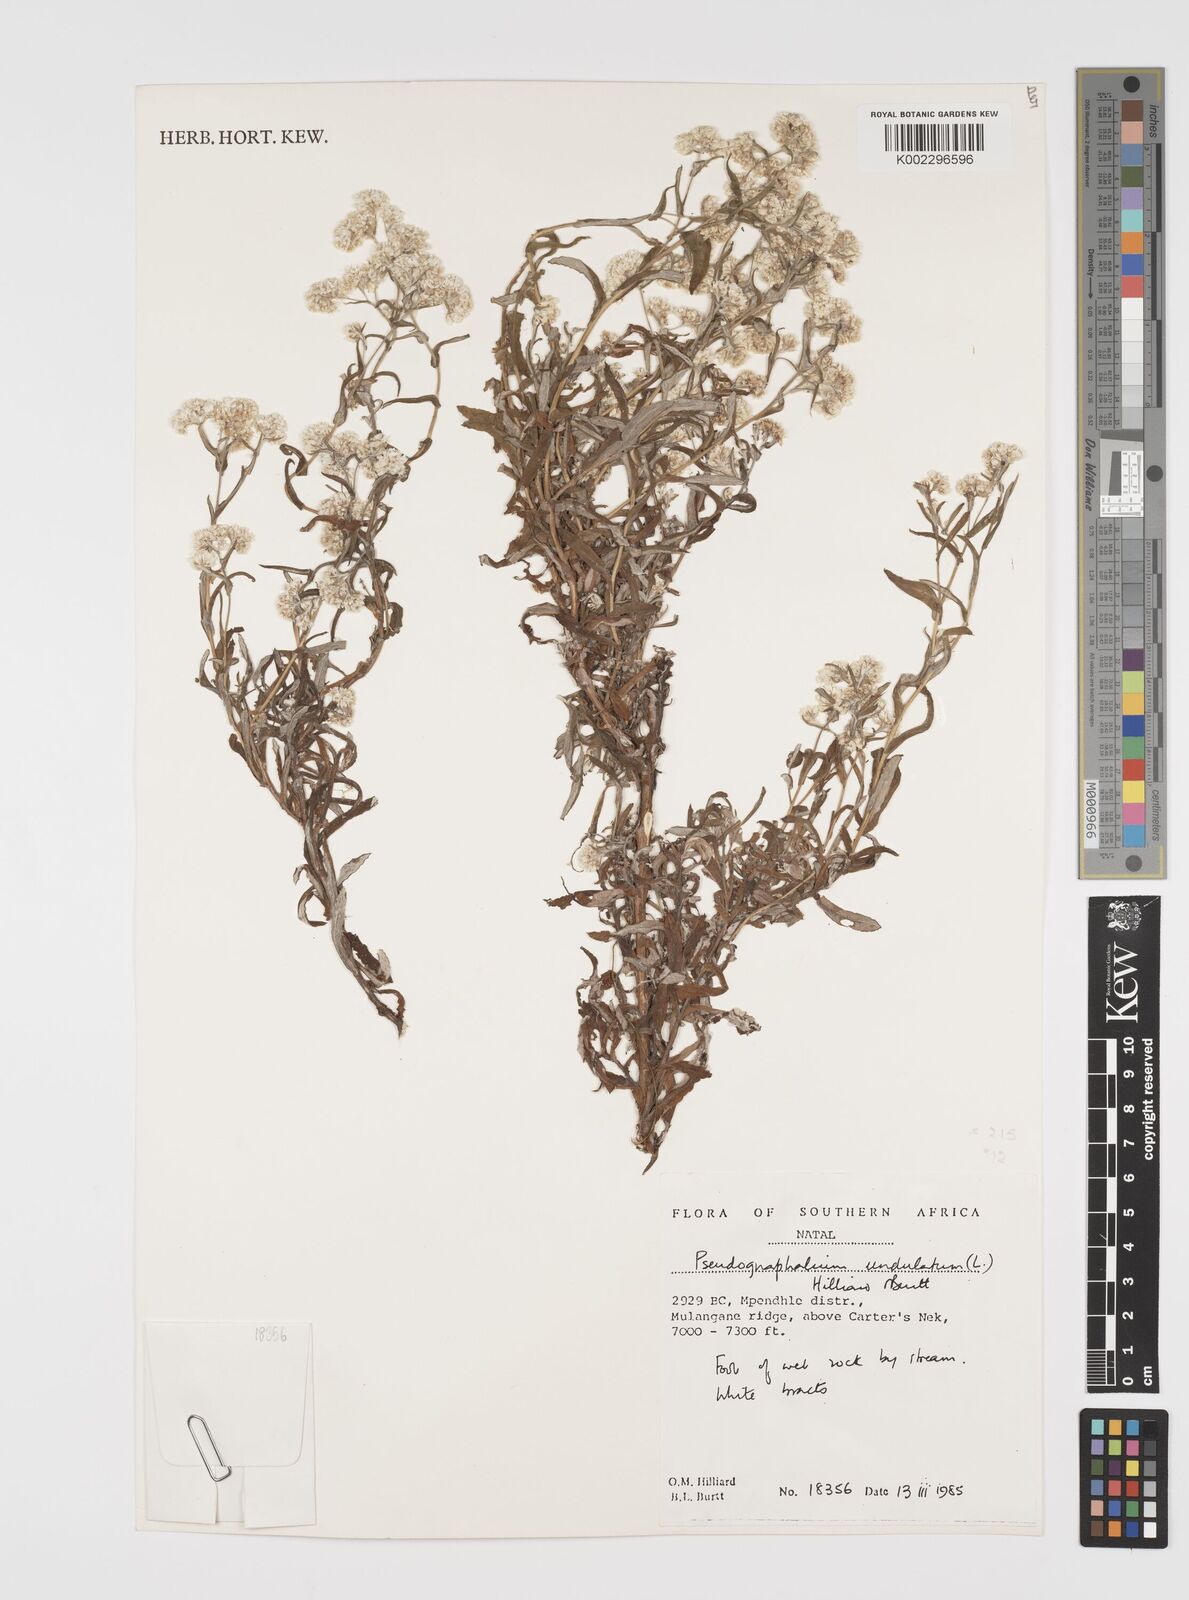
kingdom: Plantae
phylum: Tracheophyta
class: Magnoliopsida
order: Asterales
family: Asteraceae
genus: Pseudognaphalium
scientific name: Pseudognaphalium undulatum
